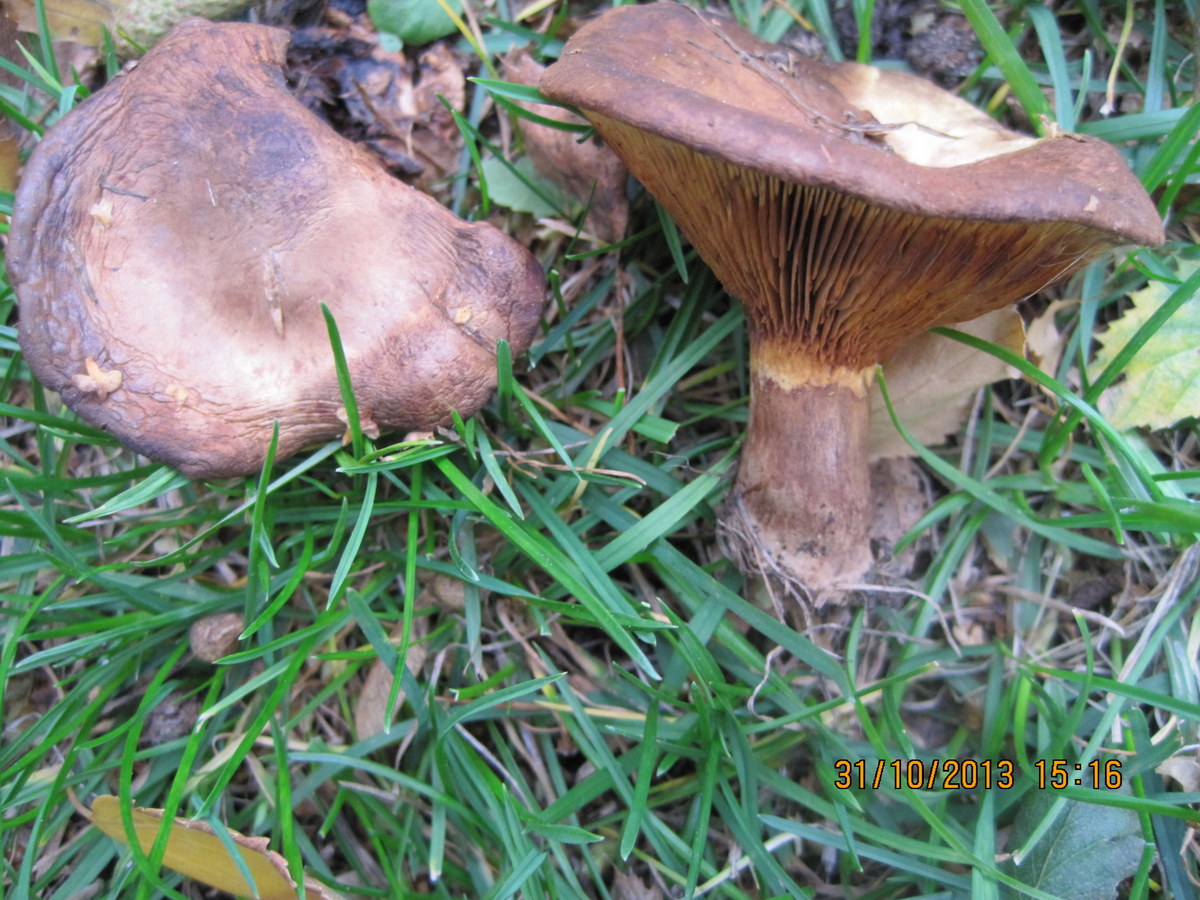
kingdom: Fungi
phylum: Basidiomycota
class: Agaricomycetes
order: Boletales
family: Paxillaceae
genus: Paxillus
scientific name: Paxillus obscurisporus
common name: mahognisporet netbladhat
